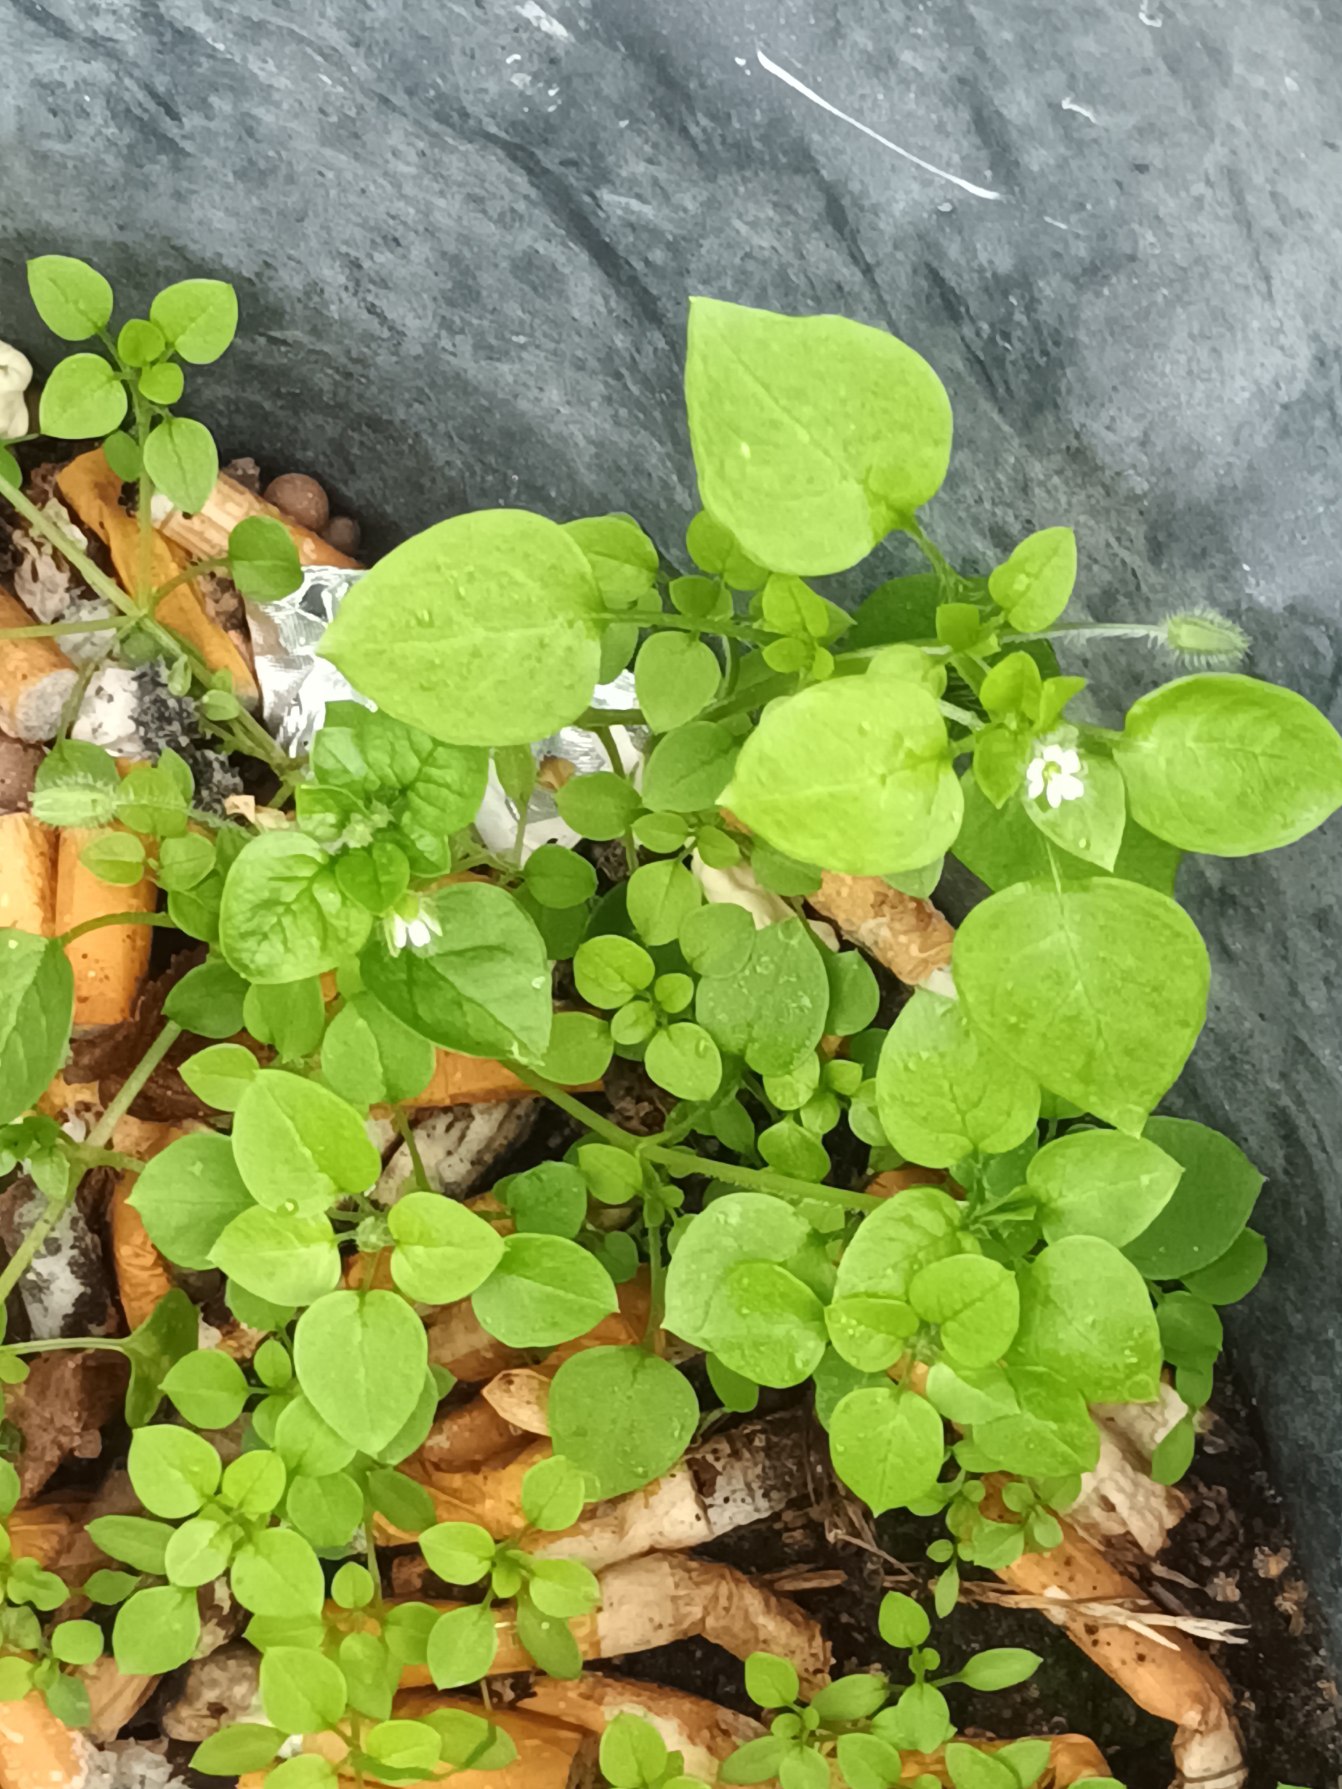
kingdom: Plantae
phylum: Tracheophyta
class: Magnoliopsida
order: Caryophyllales
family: Caryophyllaceae
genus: Stellaria
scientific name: Stellaria media
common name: Almindelig fuglegræs
